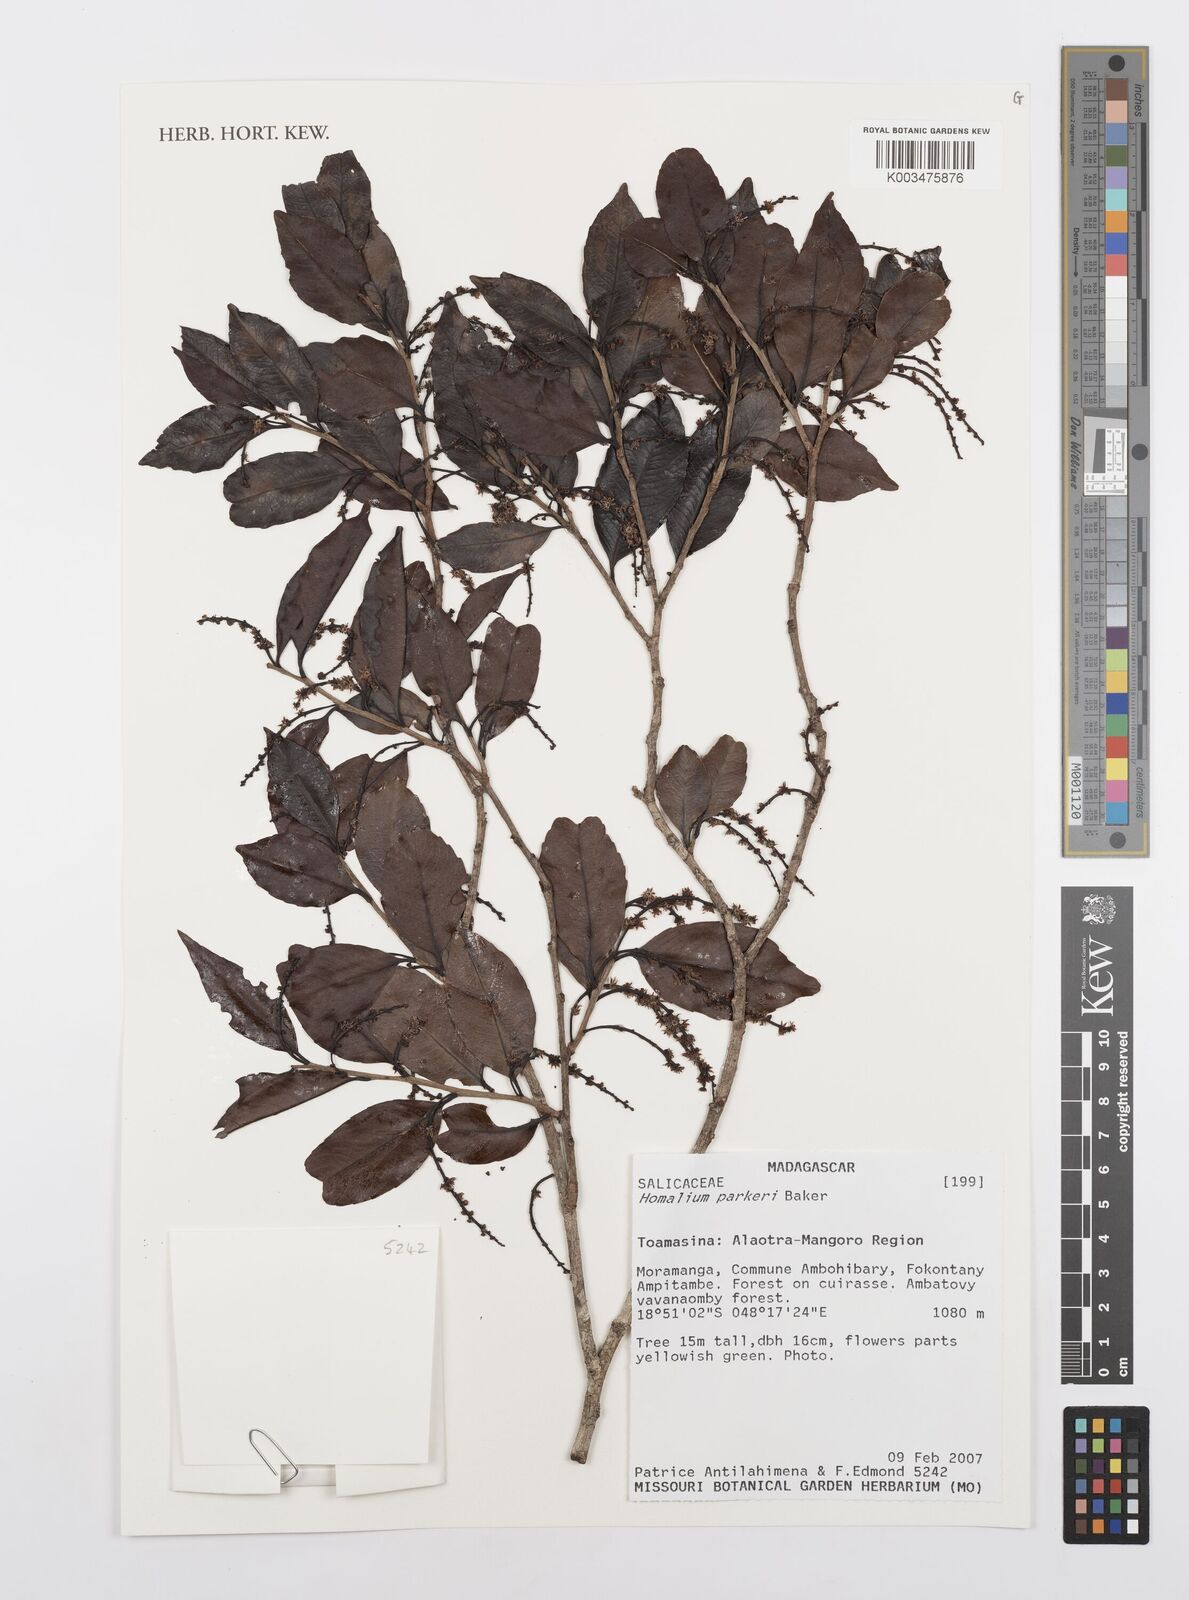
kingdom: Plantae
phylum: Tracheophyta
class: Magnoliopsida
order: Malpighiales
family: Salicaceae
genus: Homalium
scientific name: Homalium parkeri
